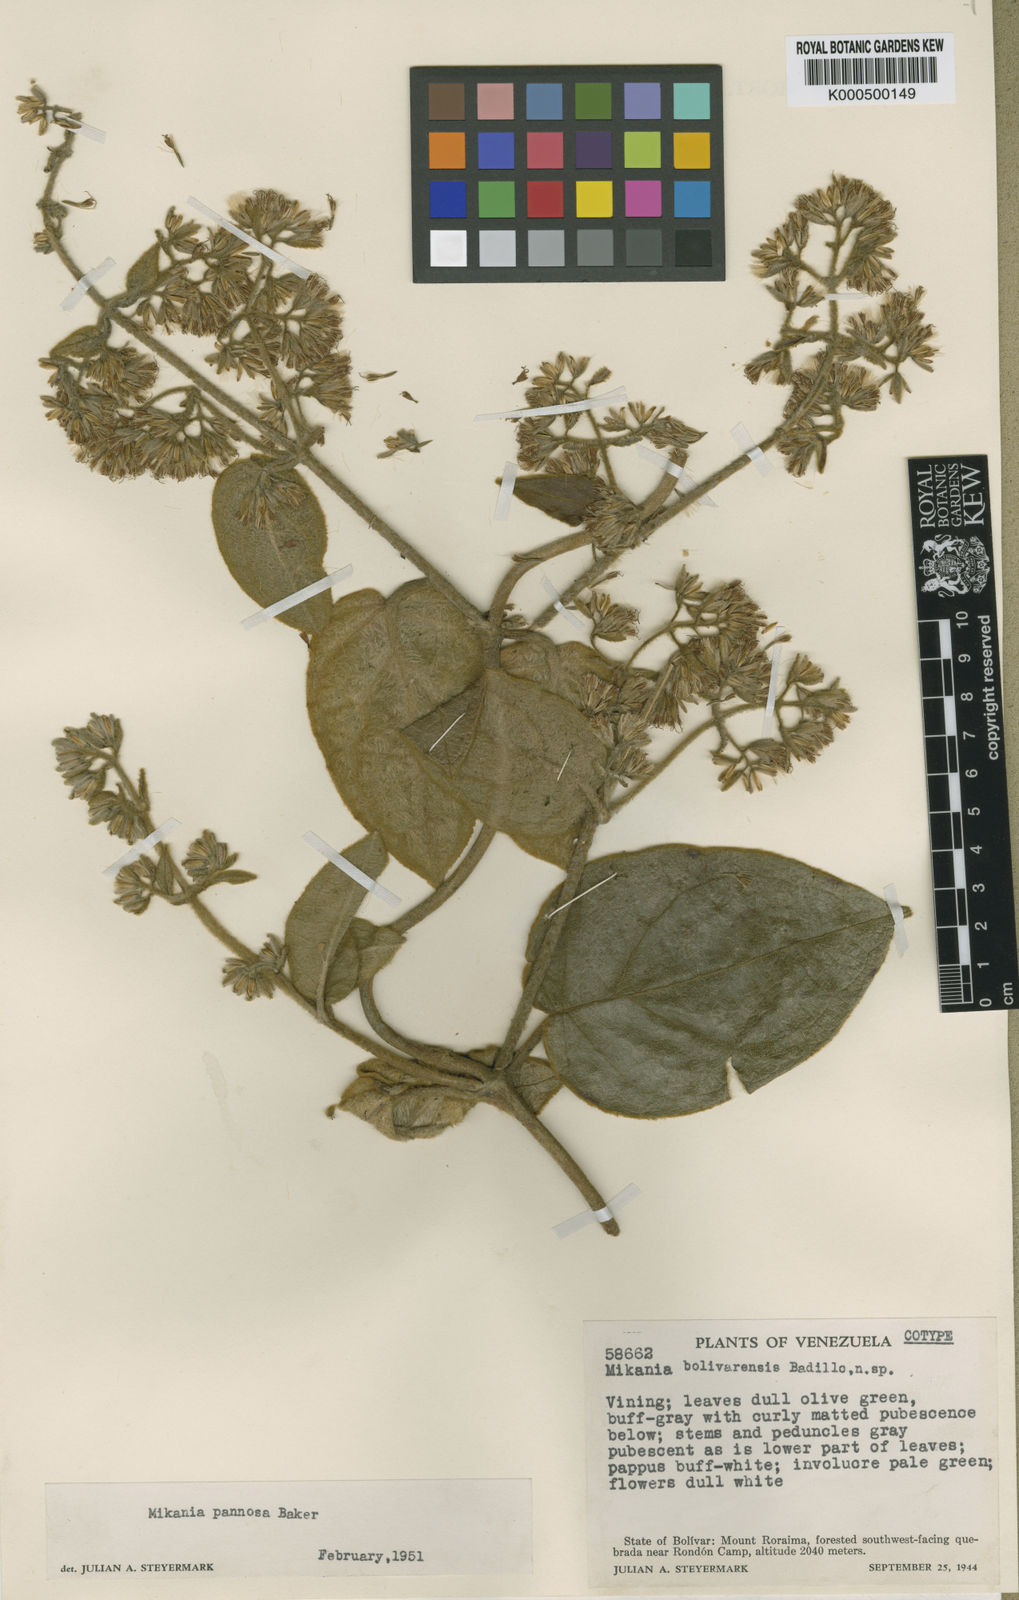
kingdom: Plantae
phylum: Tracheophyta
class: Magnoliopsida
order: Asterales
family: Asteraceae
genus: Mikania
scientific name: Mikania pannosa
